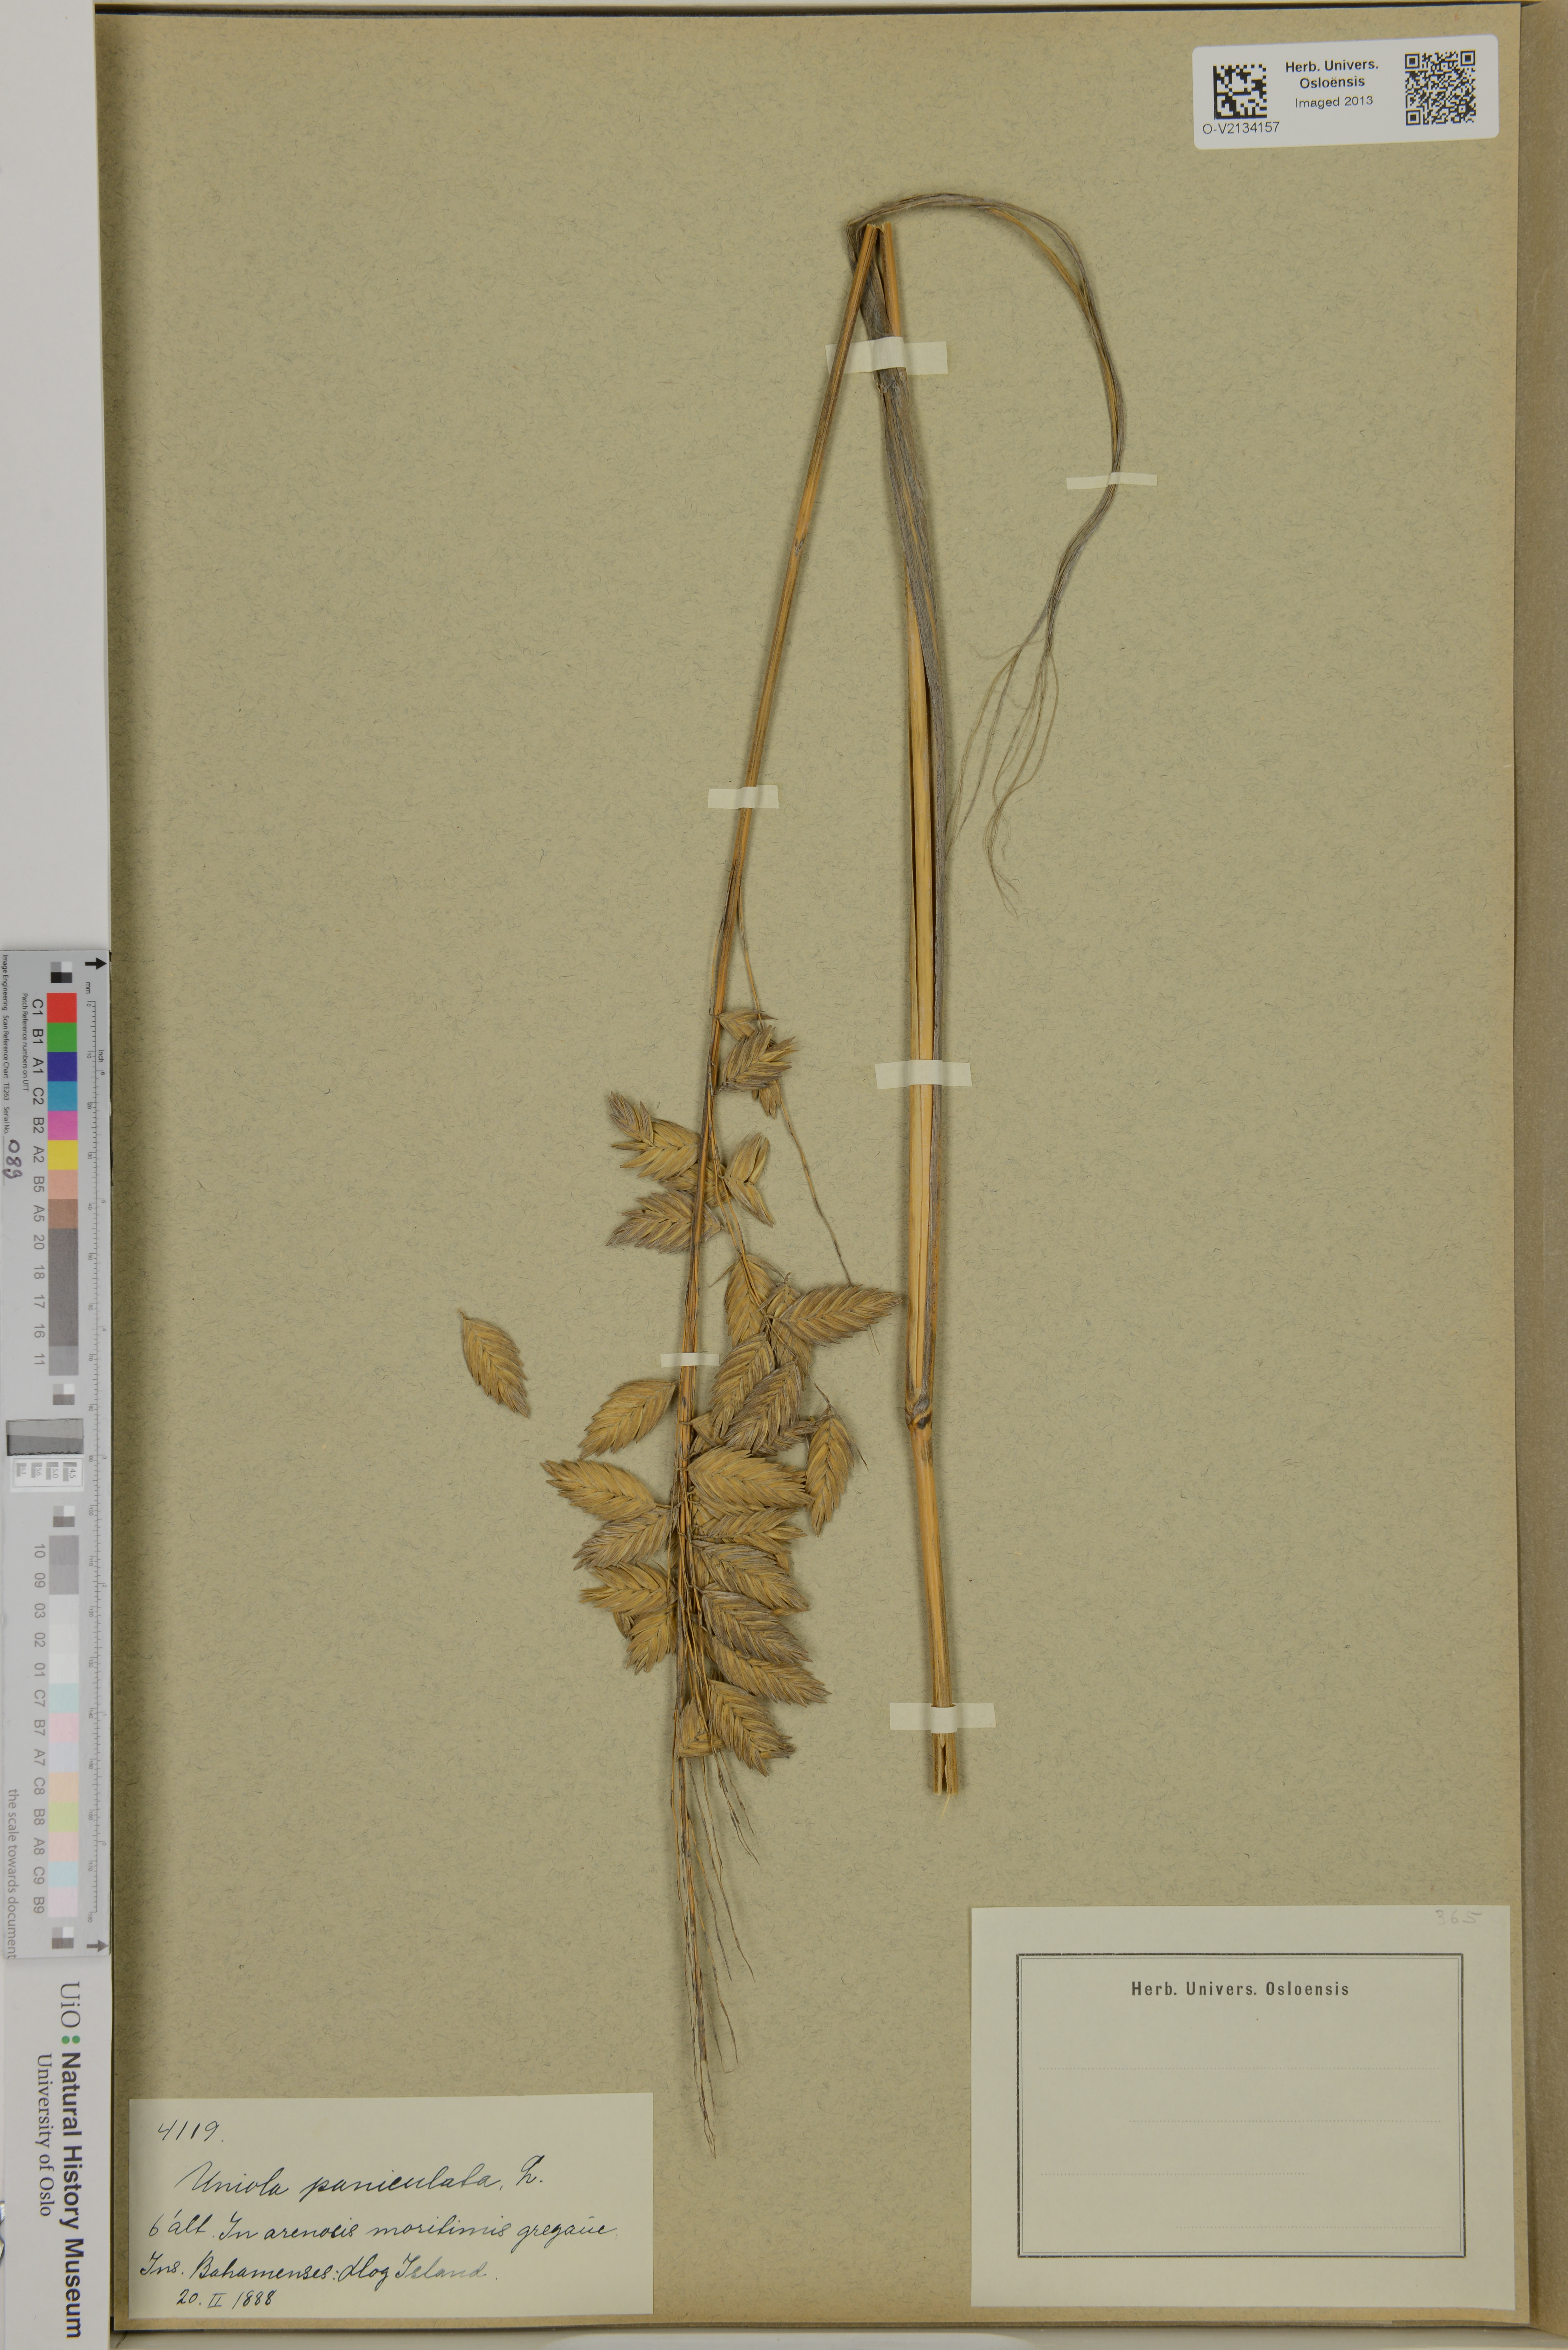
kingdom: Plantae
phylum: Tracheophyta
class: Liliopsida
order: Poales
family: Poaceae
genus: Uniola
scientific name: Uniola paniculata
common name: Seaside-oats
